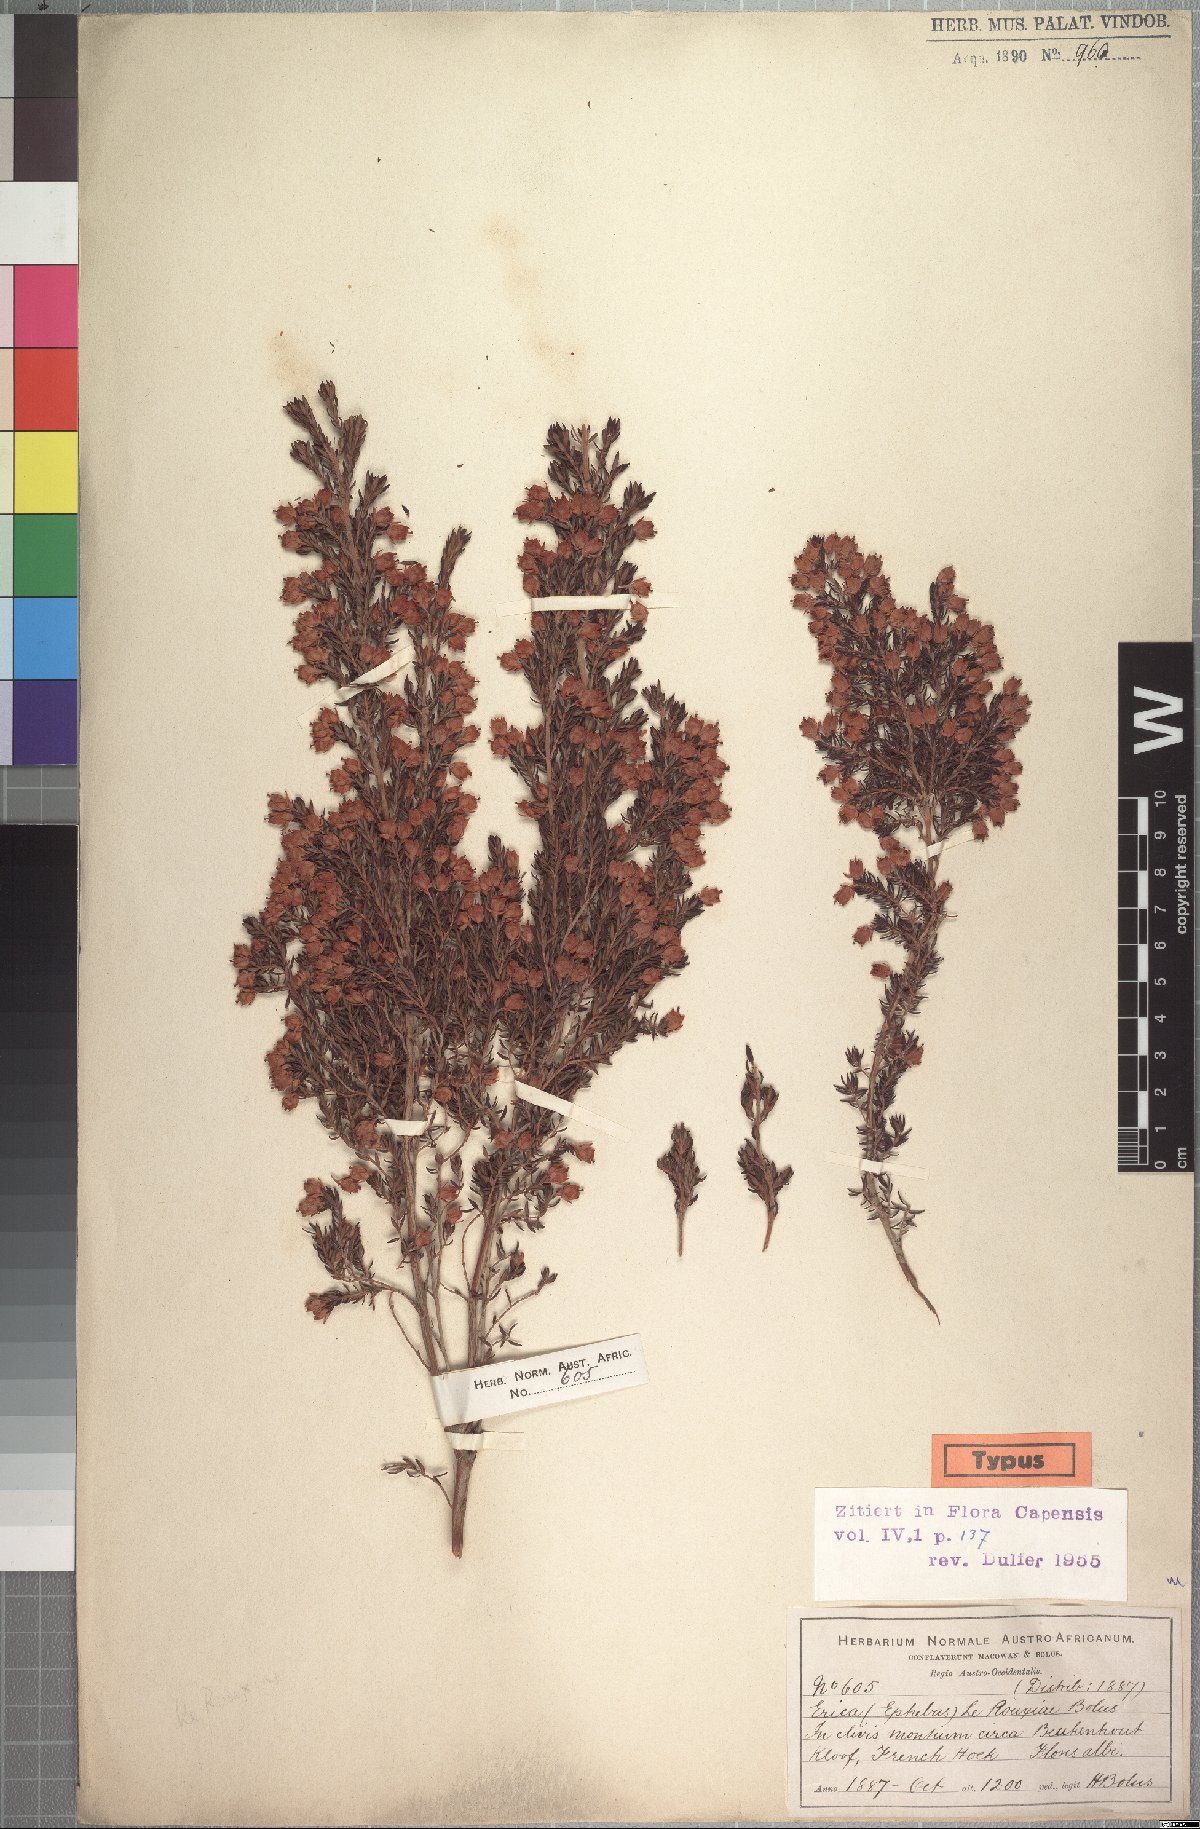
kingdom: Plantae
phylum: Tracheophyta
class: Magnoliopsida
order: Ericales
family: Ericaceae
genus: Erica
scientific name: Erica lerouxiae
